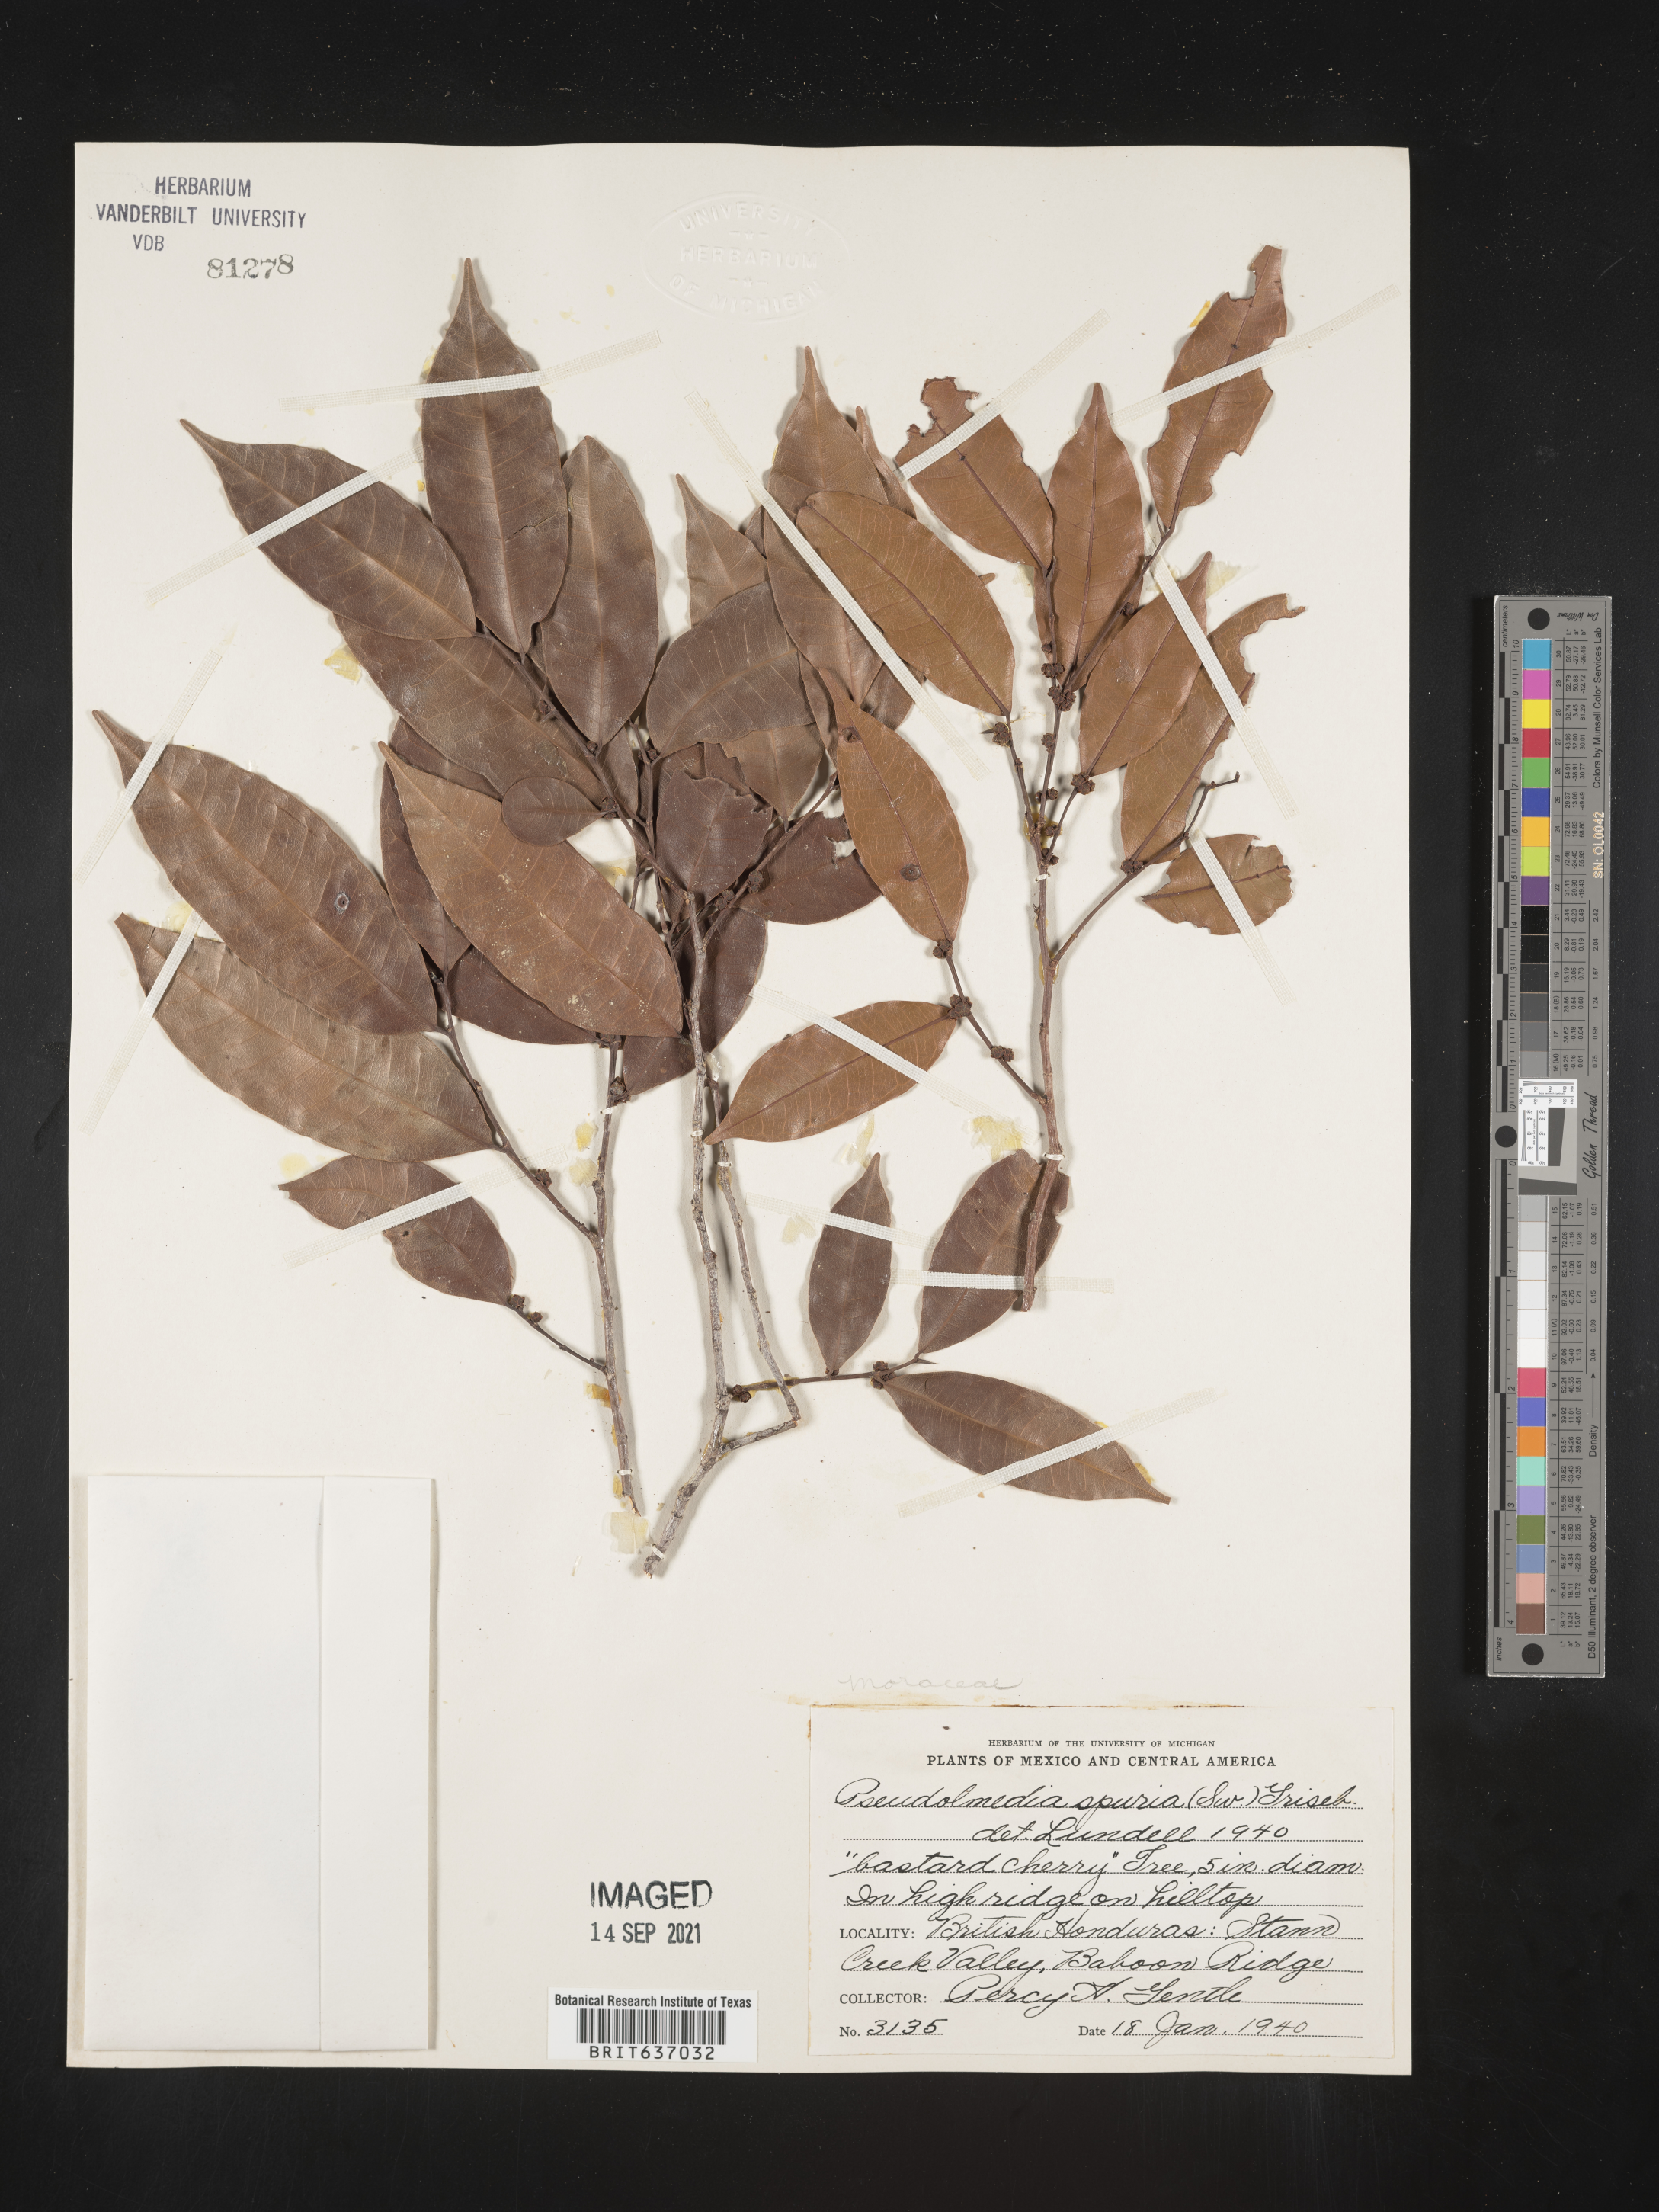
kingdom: Plantae
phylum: Tracheophyta
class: Magnoliopsida
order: Rosales
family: Moraceae
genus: Pseudolmedia
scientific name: Pseudolmedia
